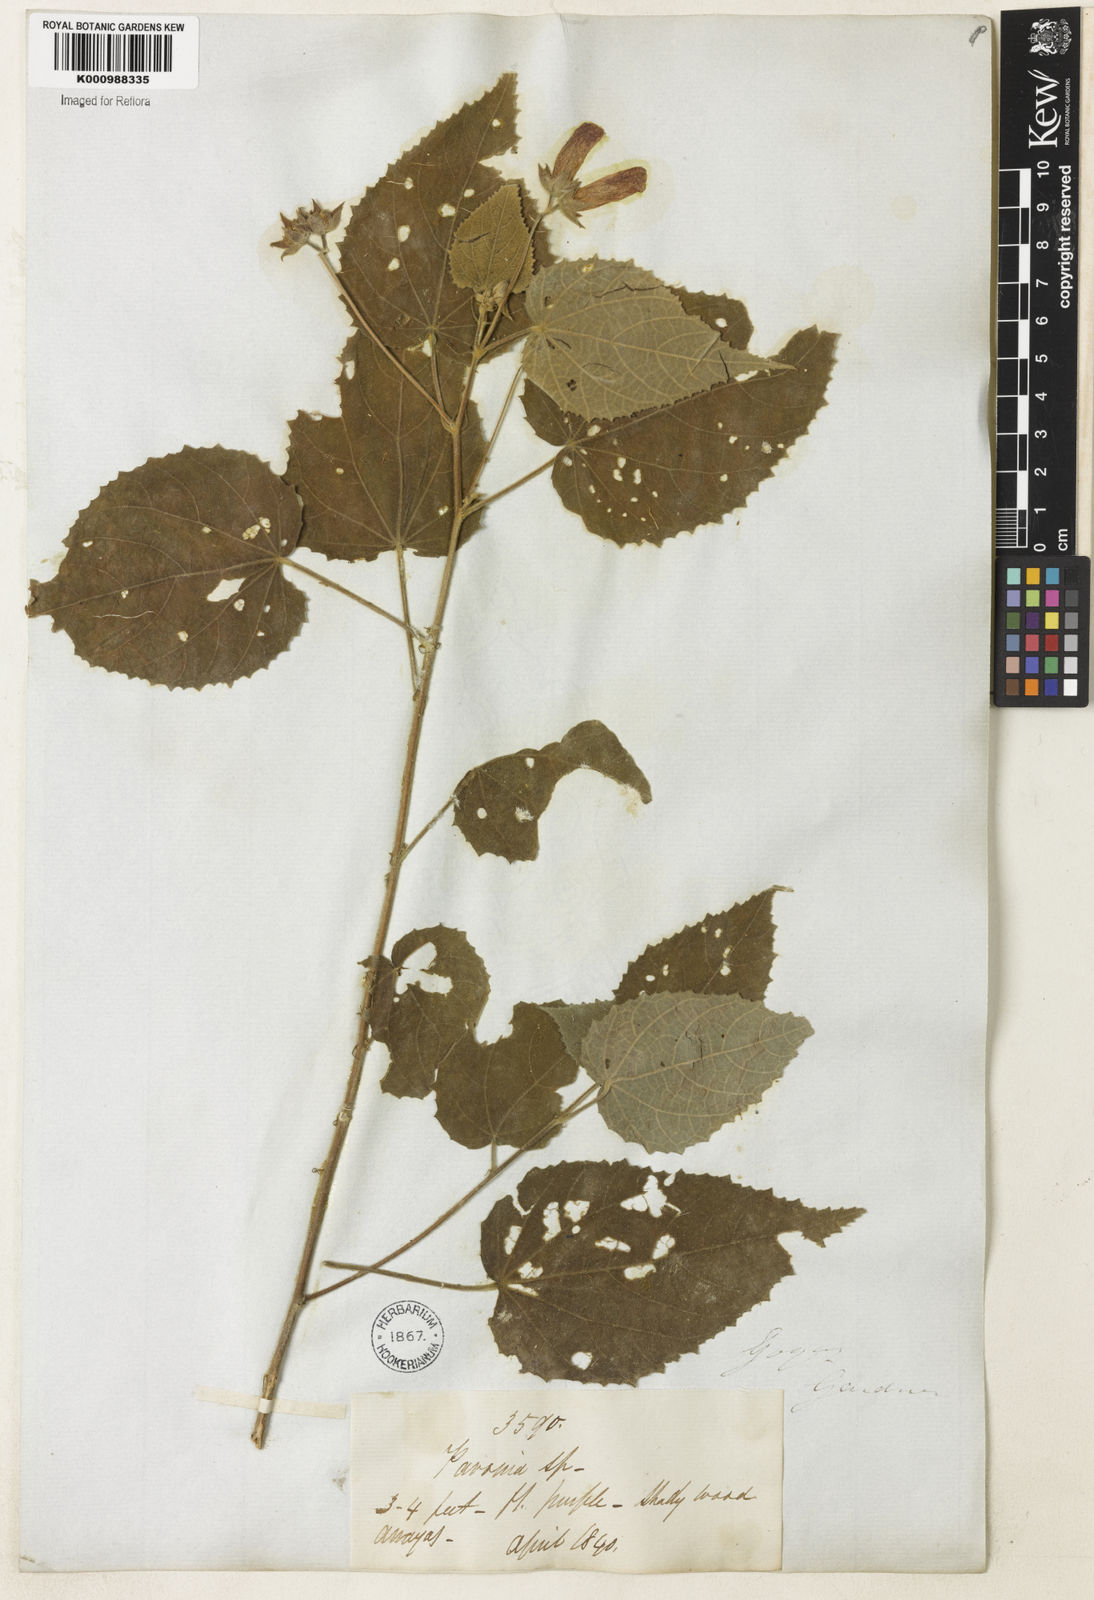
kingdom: Plantae
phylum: Tracheophyta
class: Magnoliopsida
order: Malvales
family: Malvaceae
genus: Pavonia
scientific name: Pavonia sidifolia
